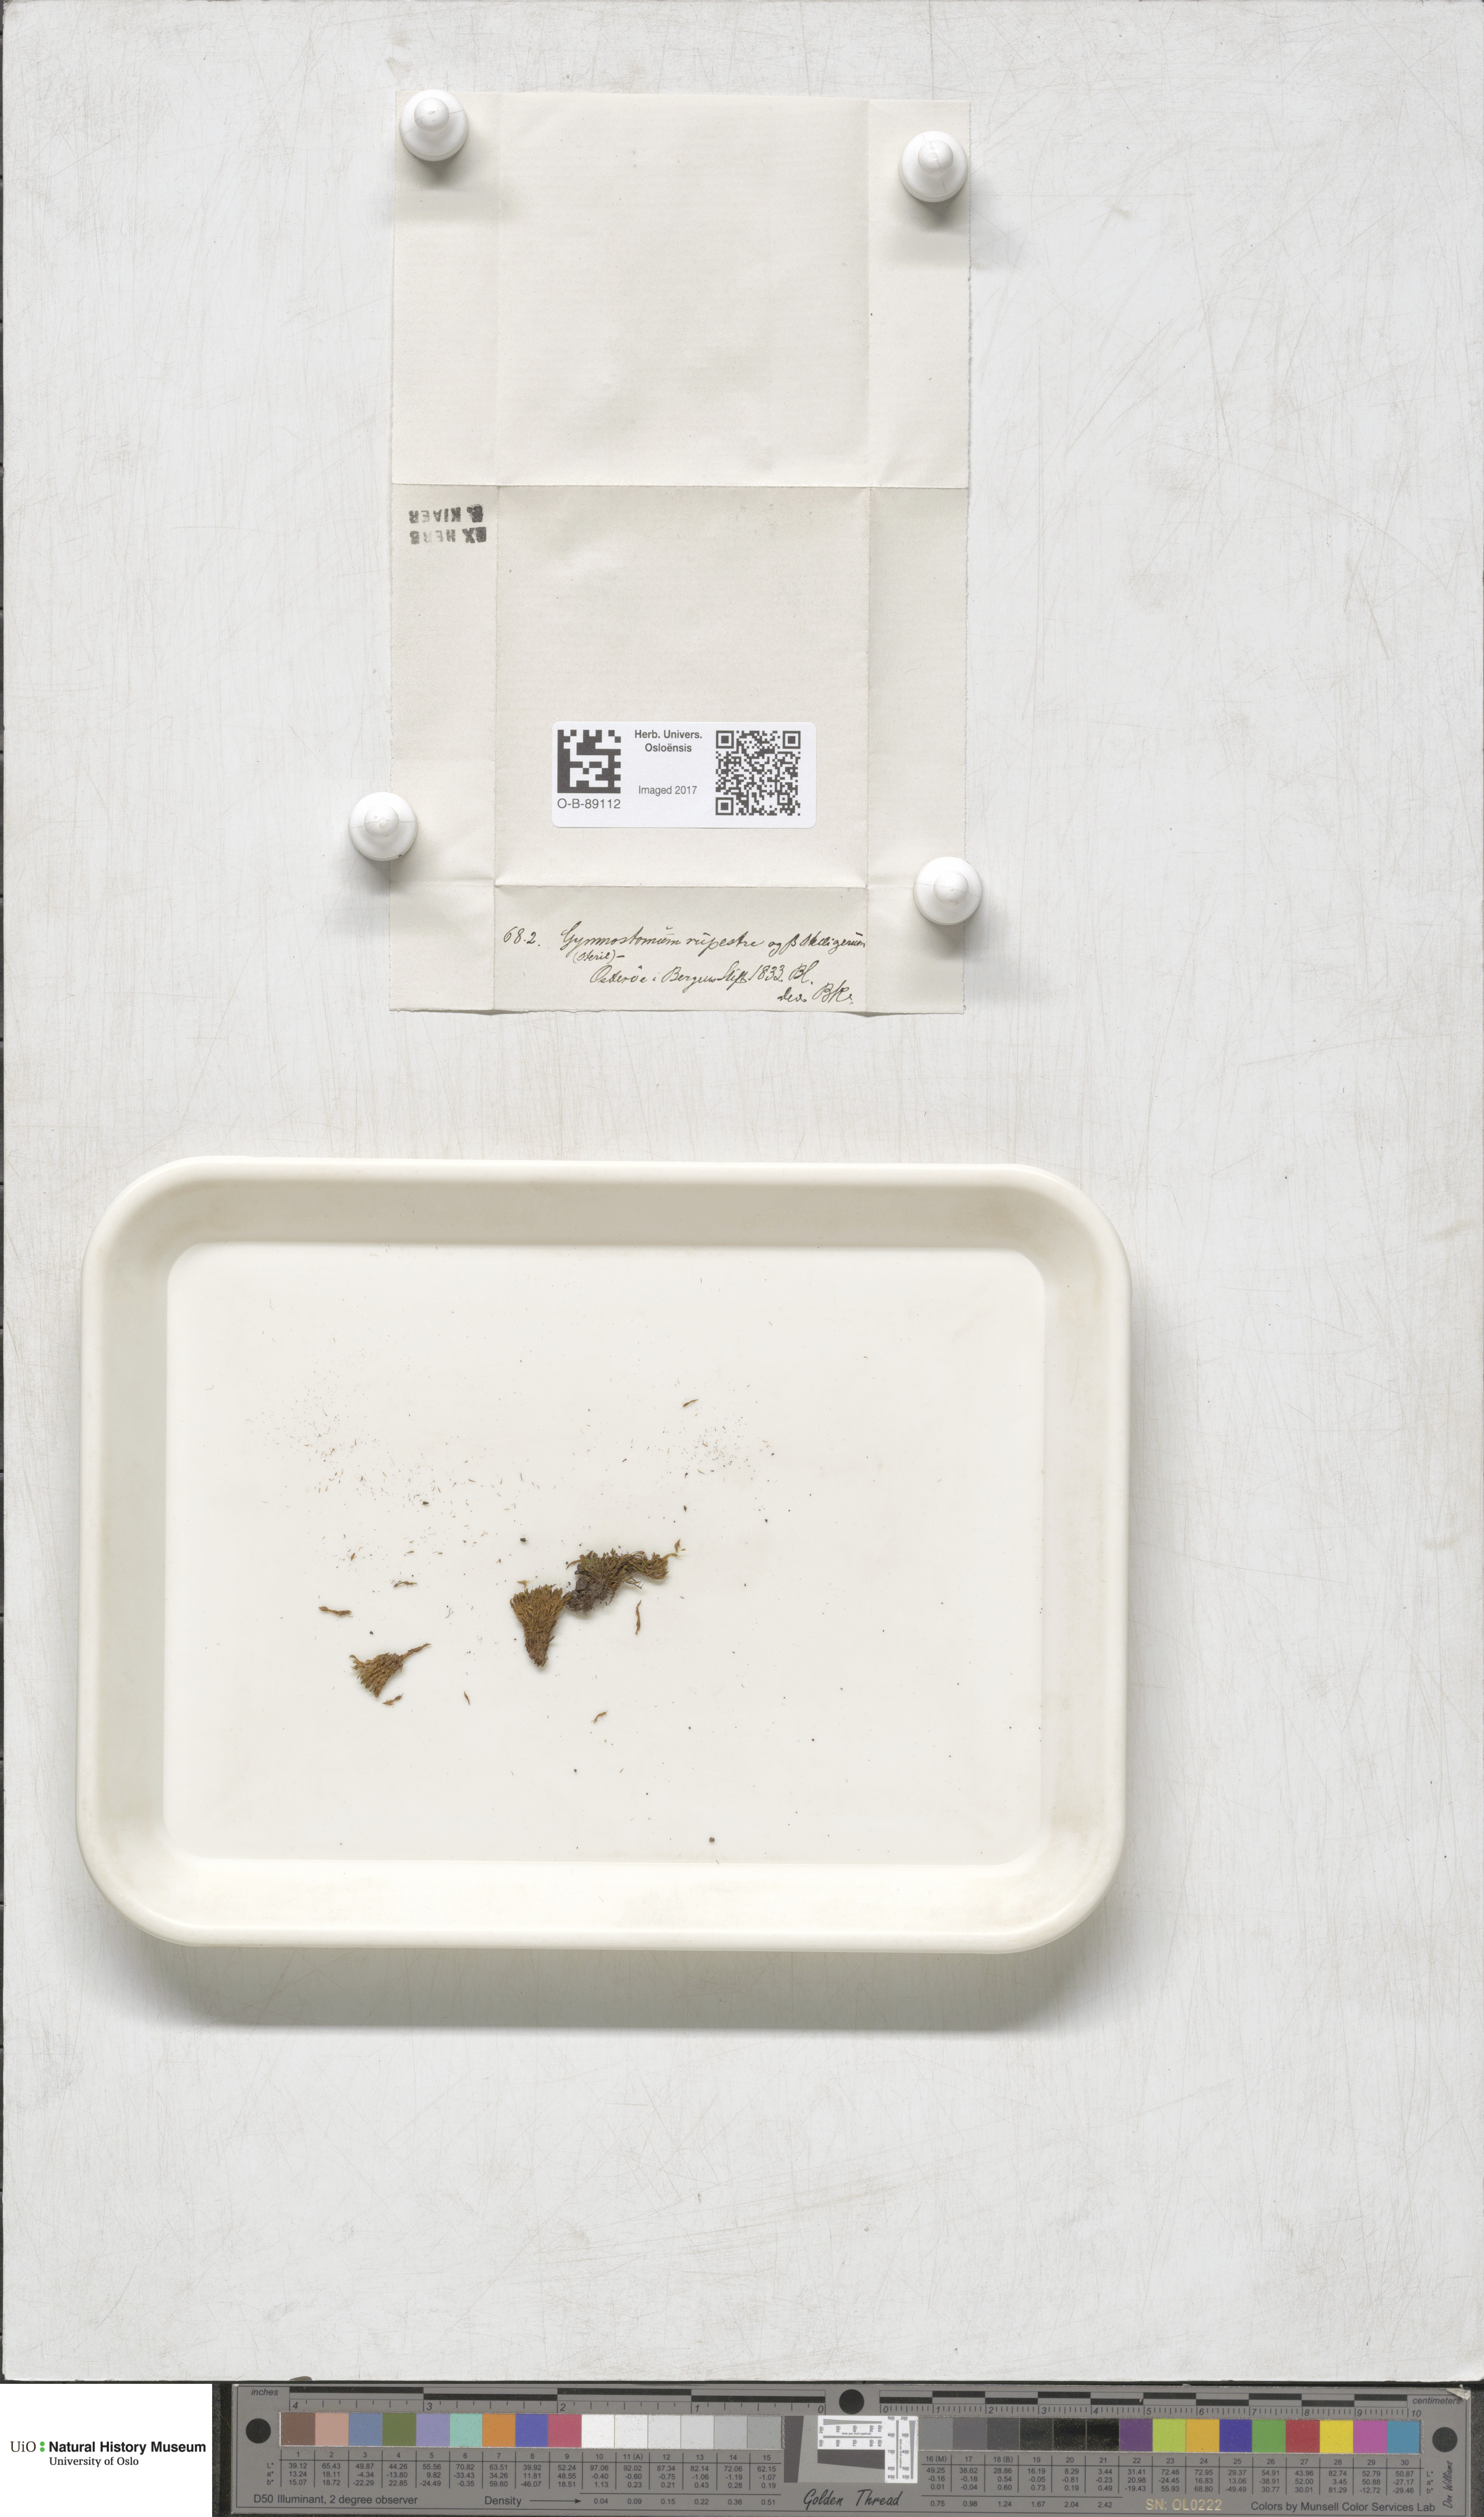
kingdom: Plantae
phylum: Bryophyta
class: Bryopsida
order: Pottiales
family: Pottiaceae
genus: Gymnostomum
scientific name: Gymnostomum aeruginosum
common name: Verdigris tufa-moss
